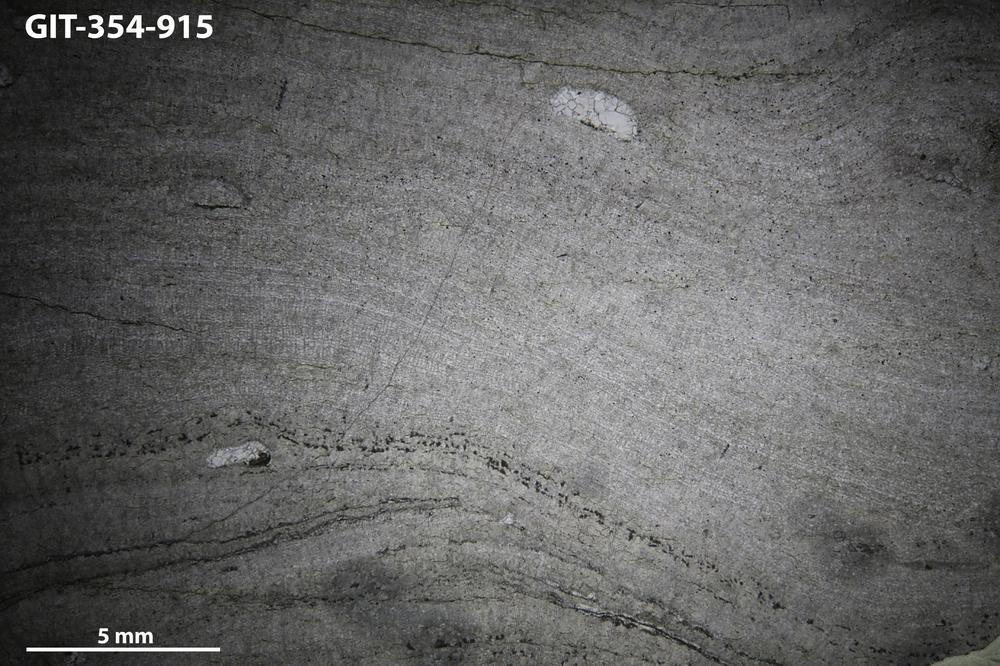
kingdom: Animalia
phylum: Porifera
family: Actinostromatidae
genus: Plectostroma
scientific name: Plectostroma
